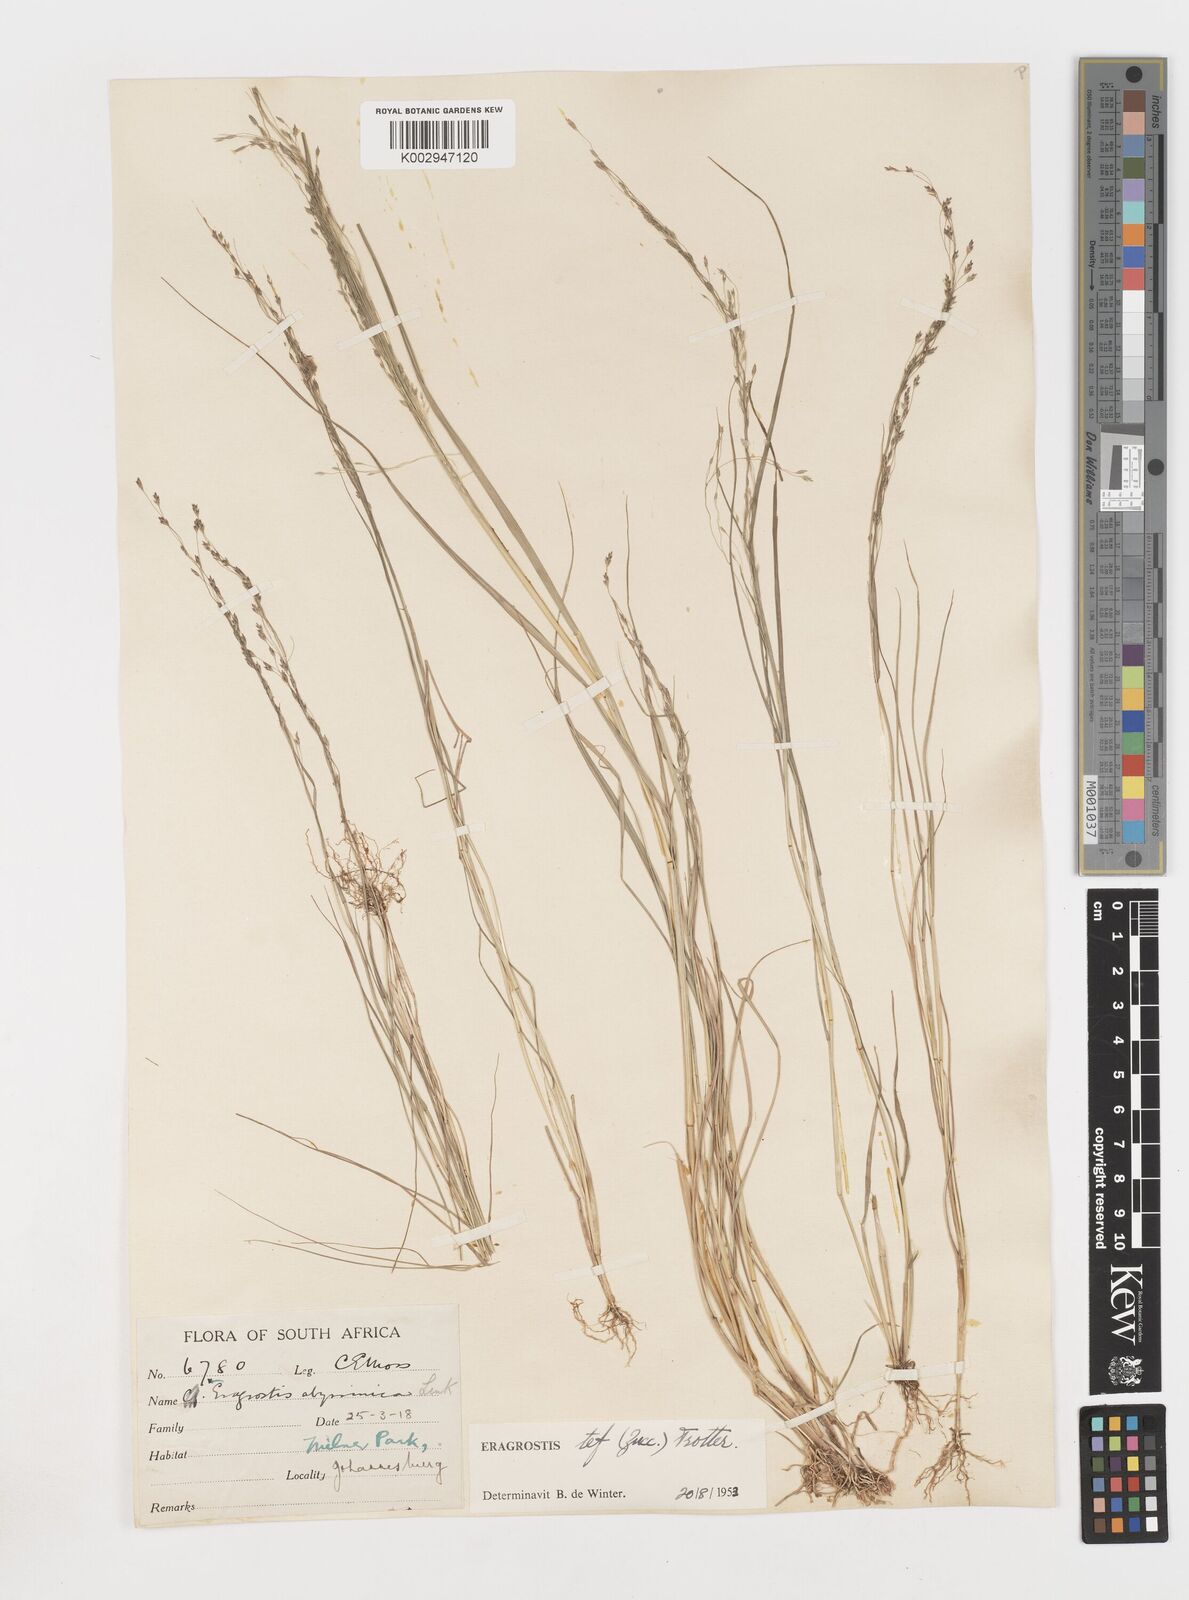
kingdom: Plantae
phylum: Tracheophyta
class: Liliopsida
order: Poales
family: Poaceae
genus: Eragrostis
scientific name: Eragrostis tef
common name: Teff
